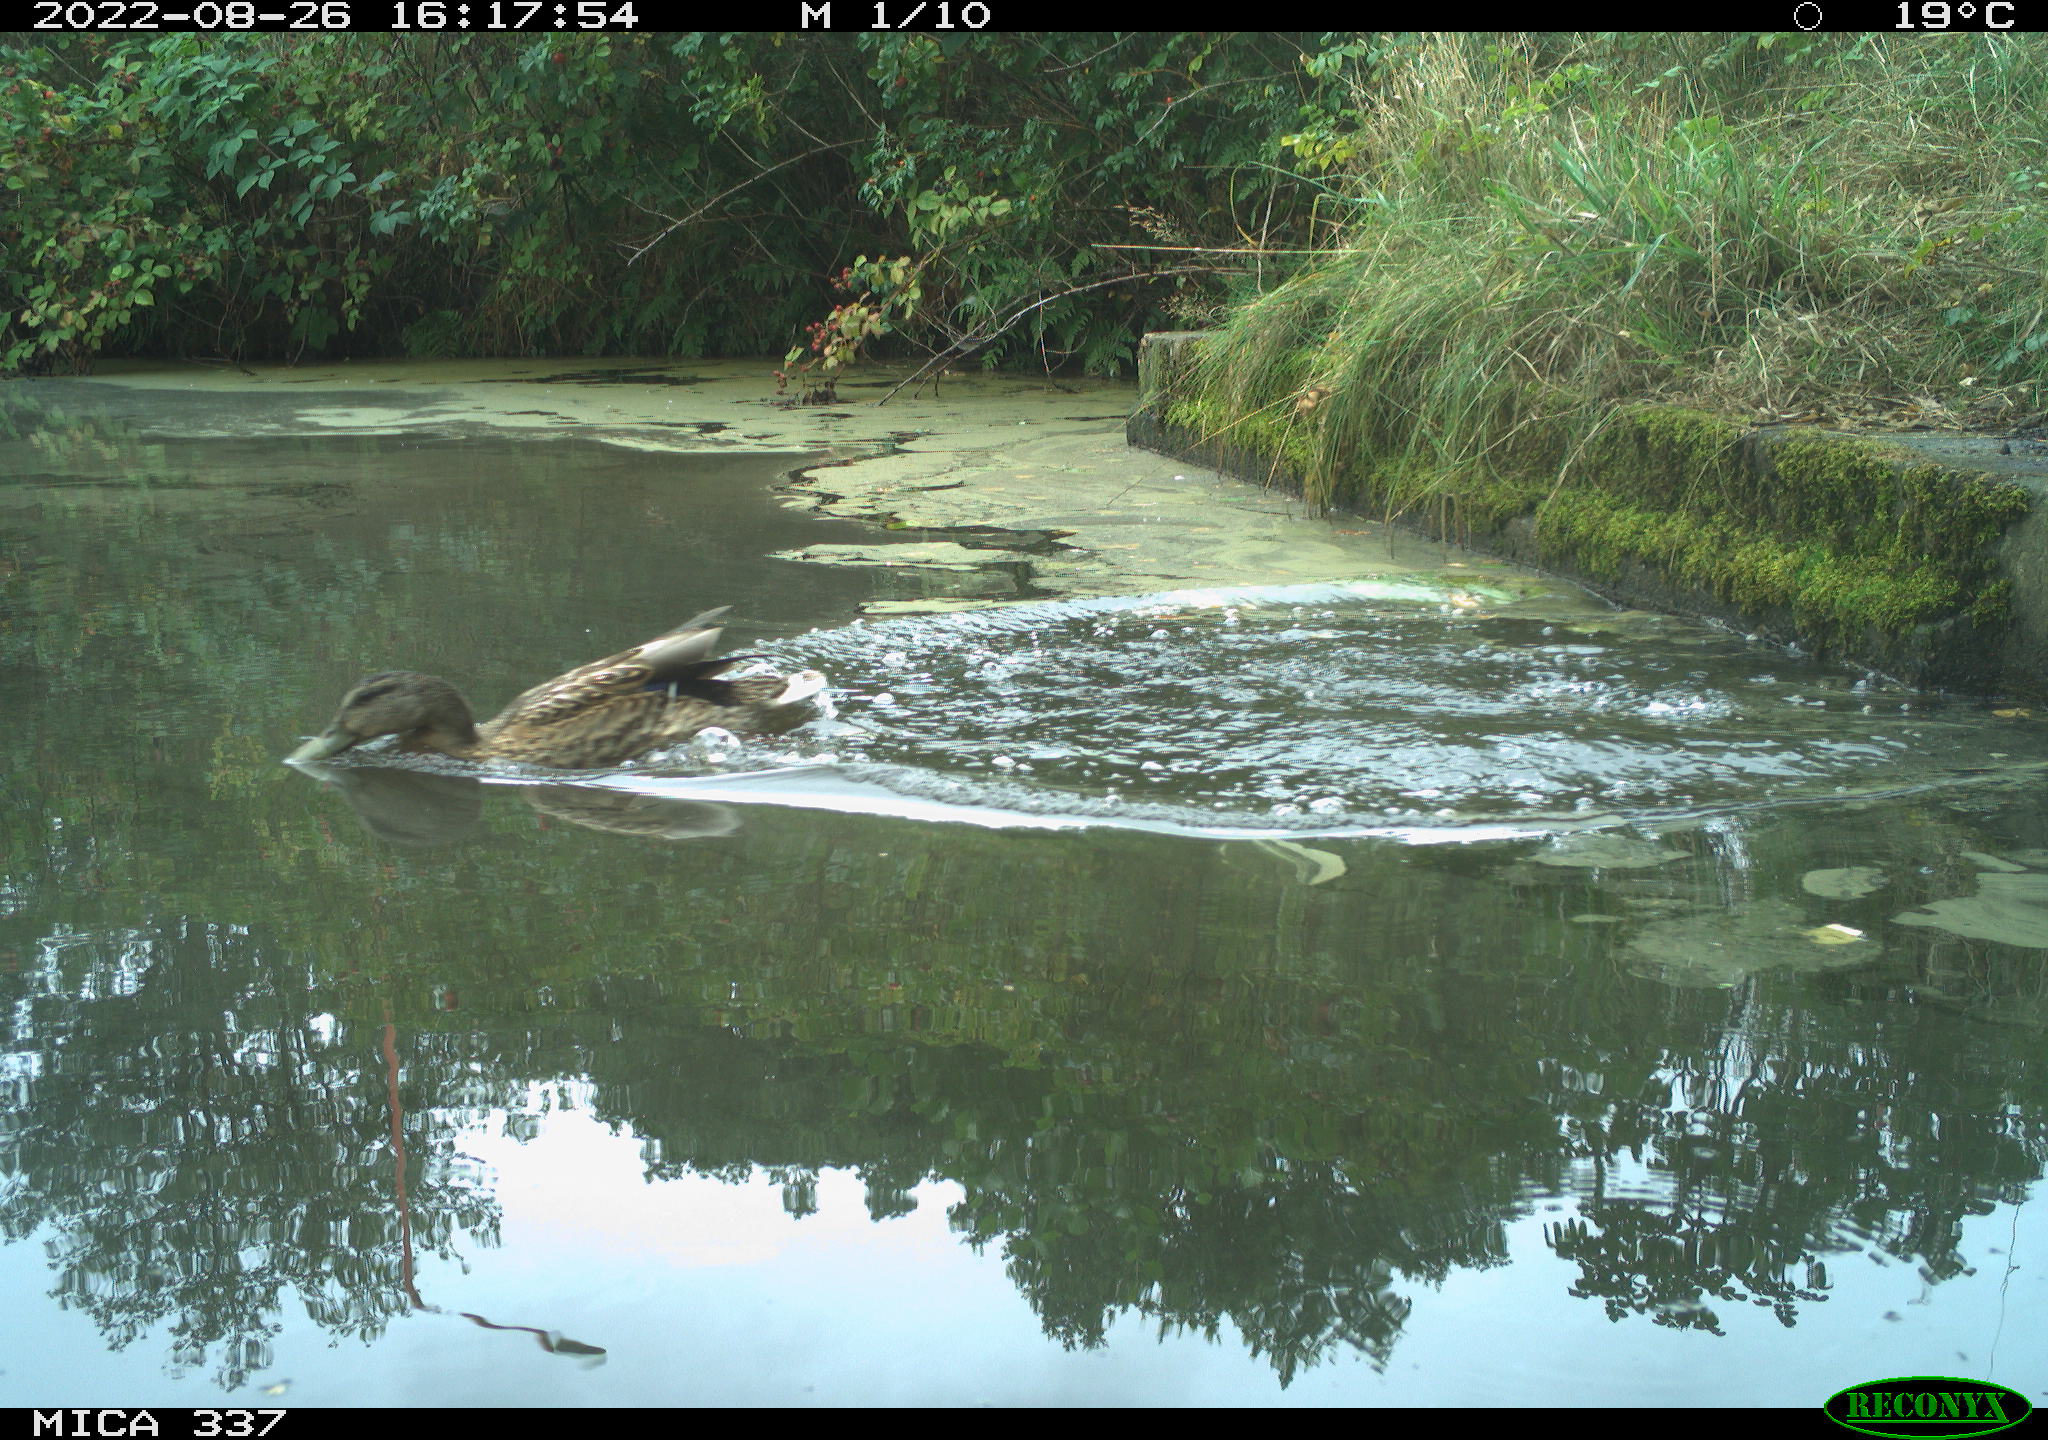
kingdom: Animalia
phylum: Chordata
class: Aves
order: Anseriformes
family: Anatidae
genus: Anas
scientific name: Anas platyrhynchos
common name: Mallard
